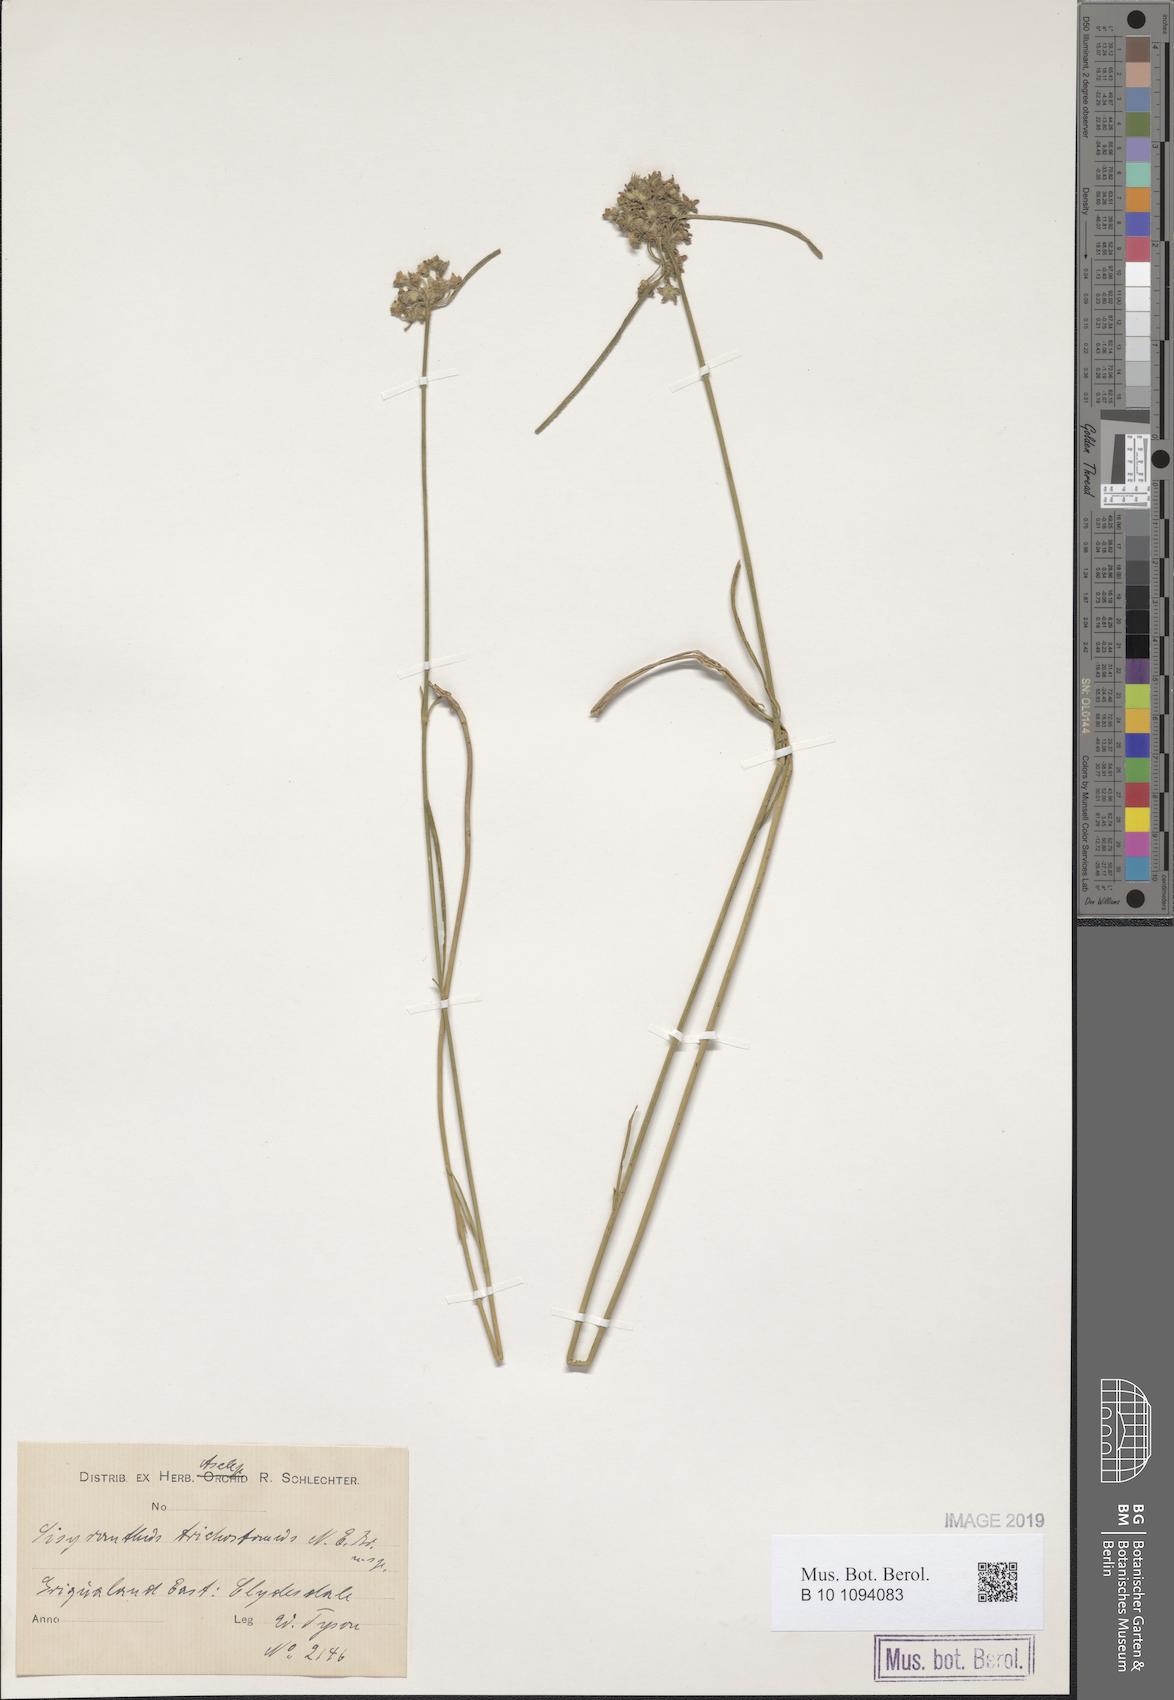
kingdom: Plantae
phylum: Tracheophyta
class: Magnoliopsida
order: Gentianales
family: Apocynaceae
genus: Sisyranthus
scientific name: Sisyranthus
